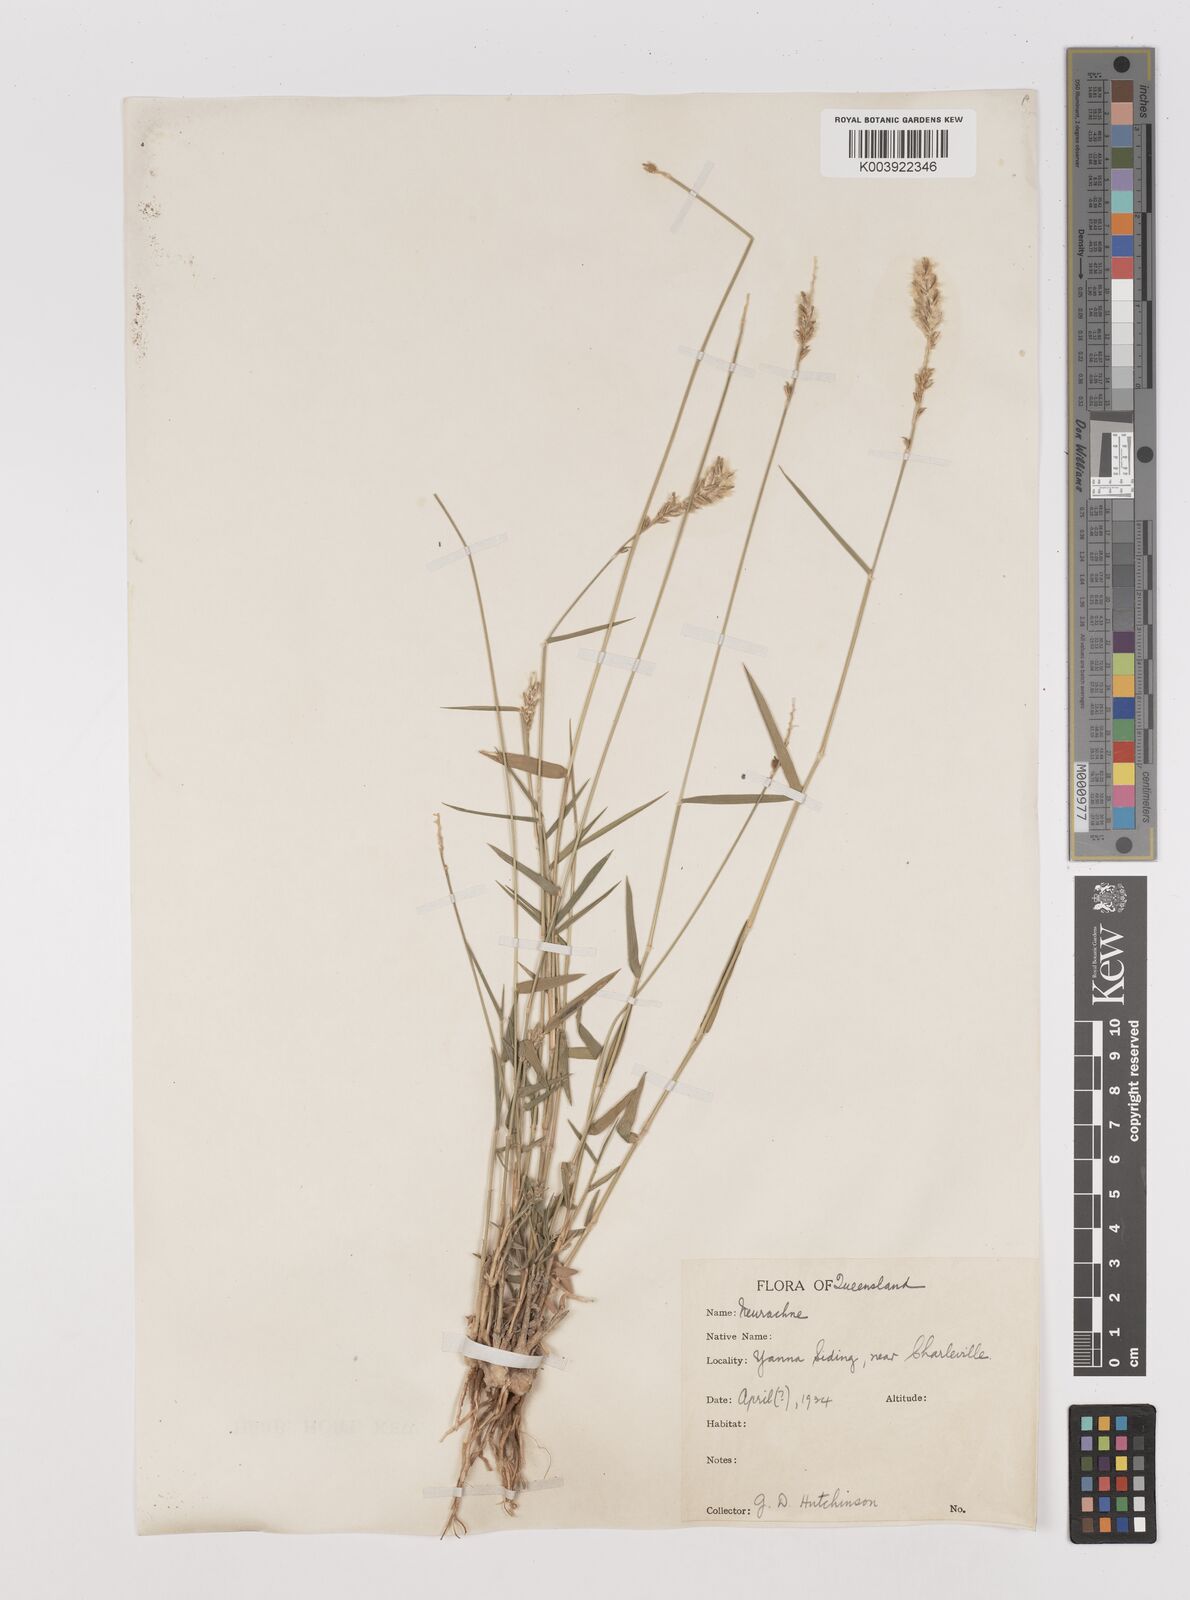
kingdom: Plantae
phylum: Tracheophyta
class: Liliopsida
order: Poales
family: Poaceae
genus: Thyridolepis
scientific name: Thyridolepis mitchelliana
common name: Rock tassel grass
